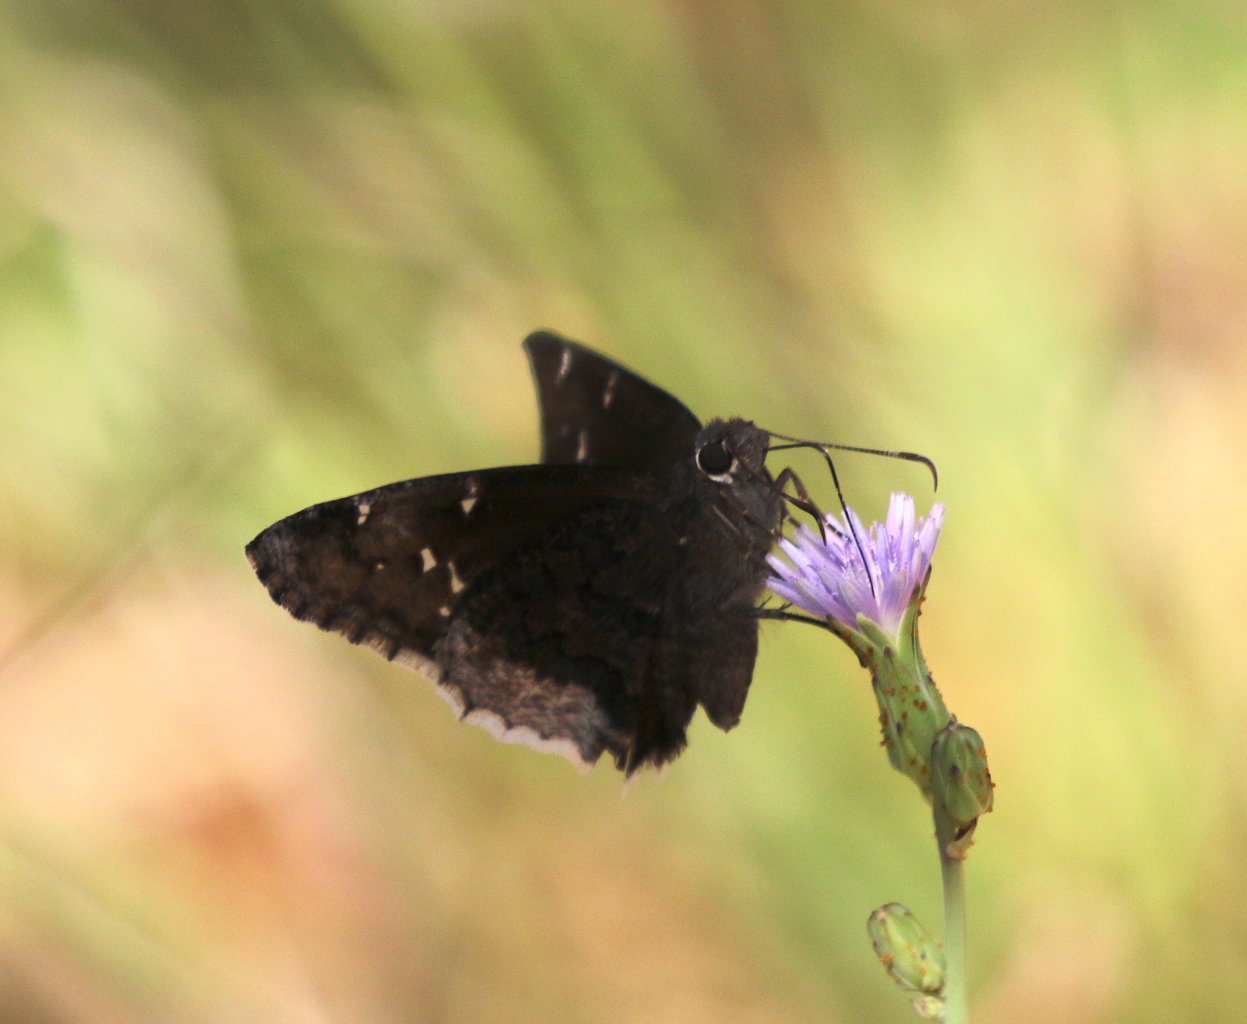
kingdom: Animalia
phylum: Arthropoda
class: Insecta
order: Lepidoptera
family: Hesperiidae
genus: Erynnis
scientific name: Erynnis pacuvius
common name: Pacuvius Duskywing
